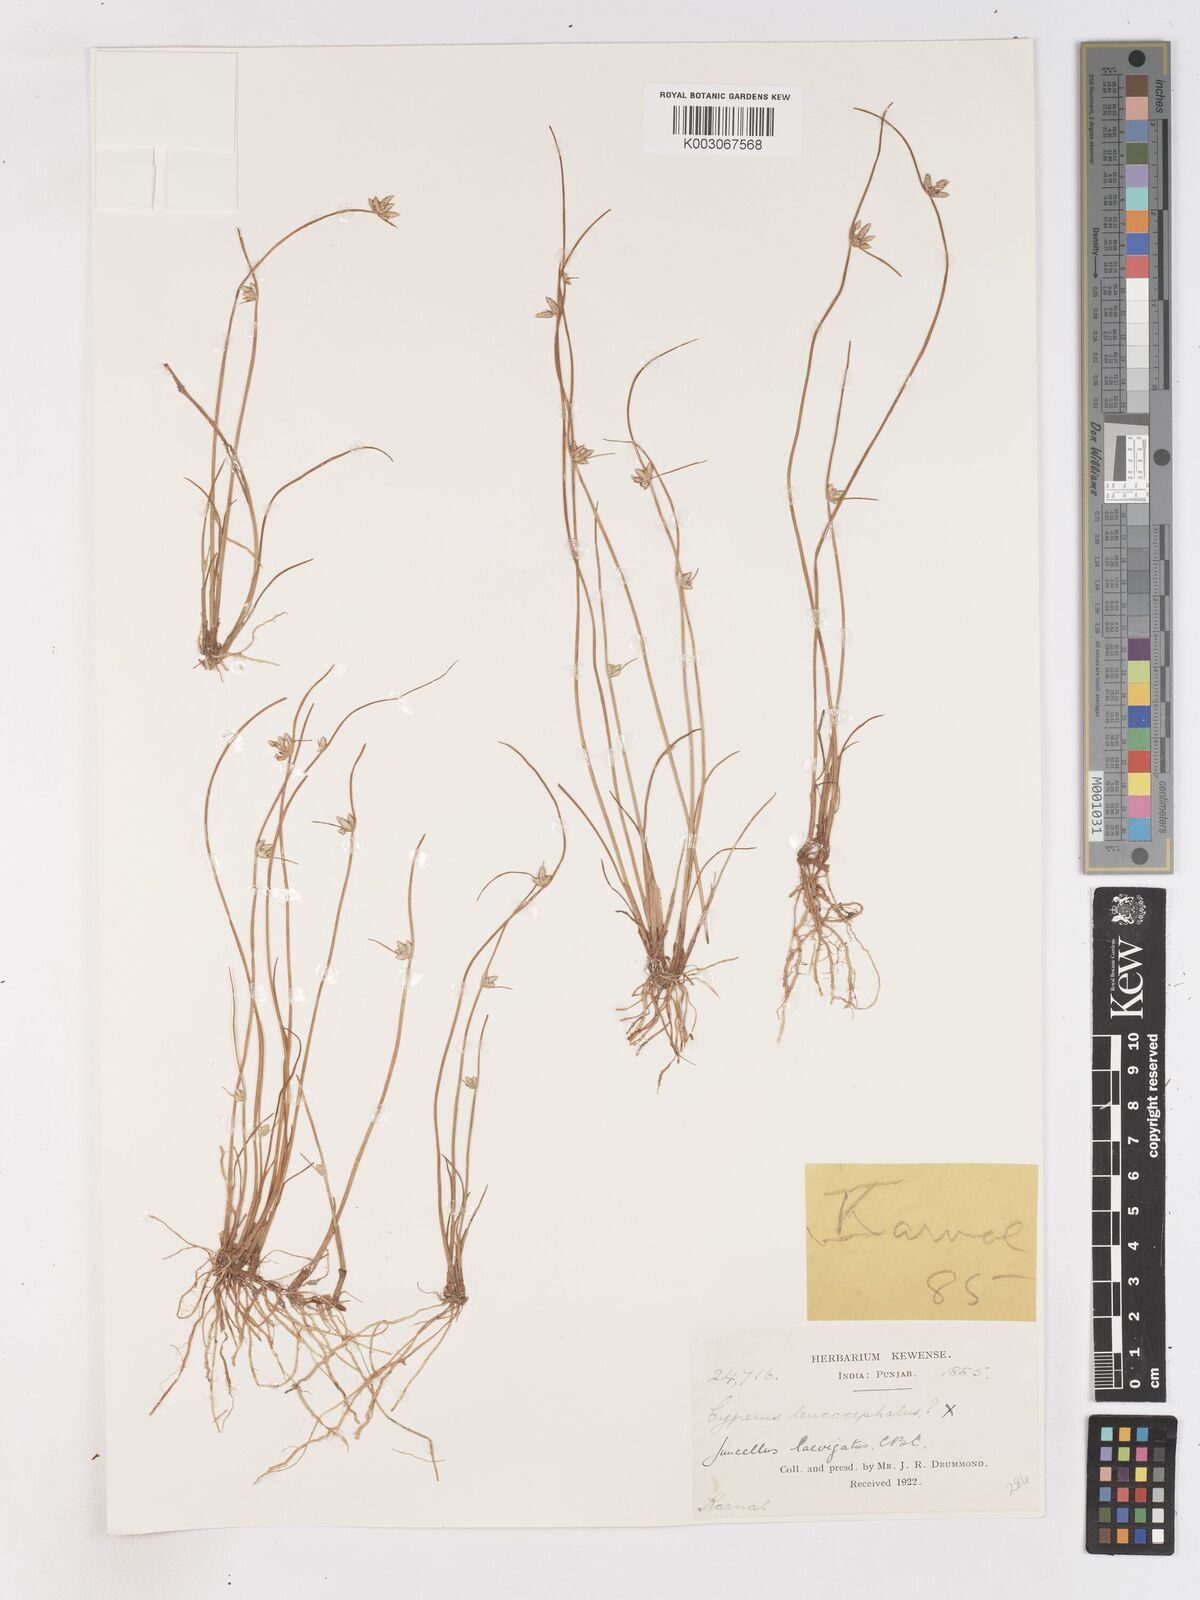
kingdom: Plantae
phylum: Tracheophyta
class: Liliopsida
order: Poales
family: Cyperaceae
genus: Cyperus
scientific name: Cyperus laevigatus
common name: Smooth flat sedge
